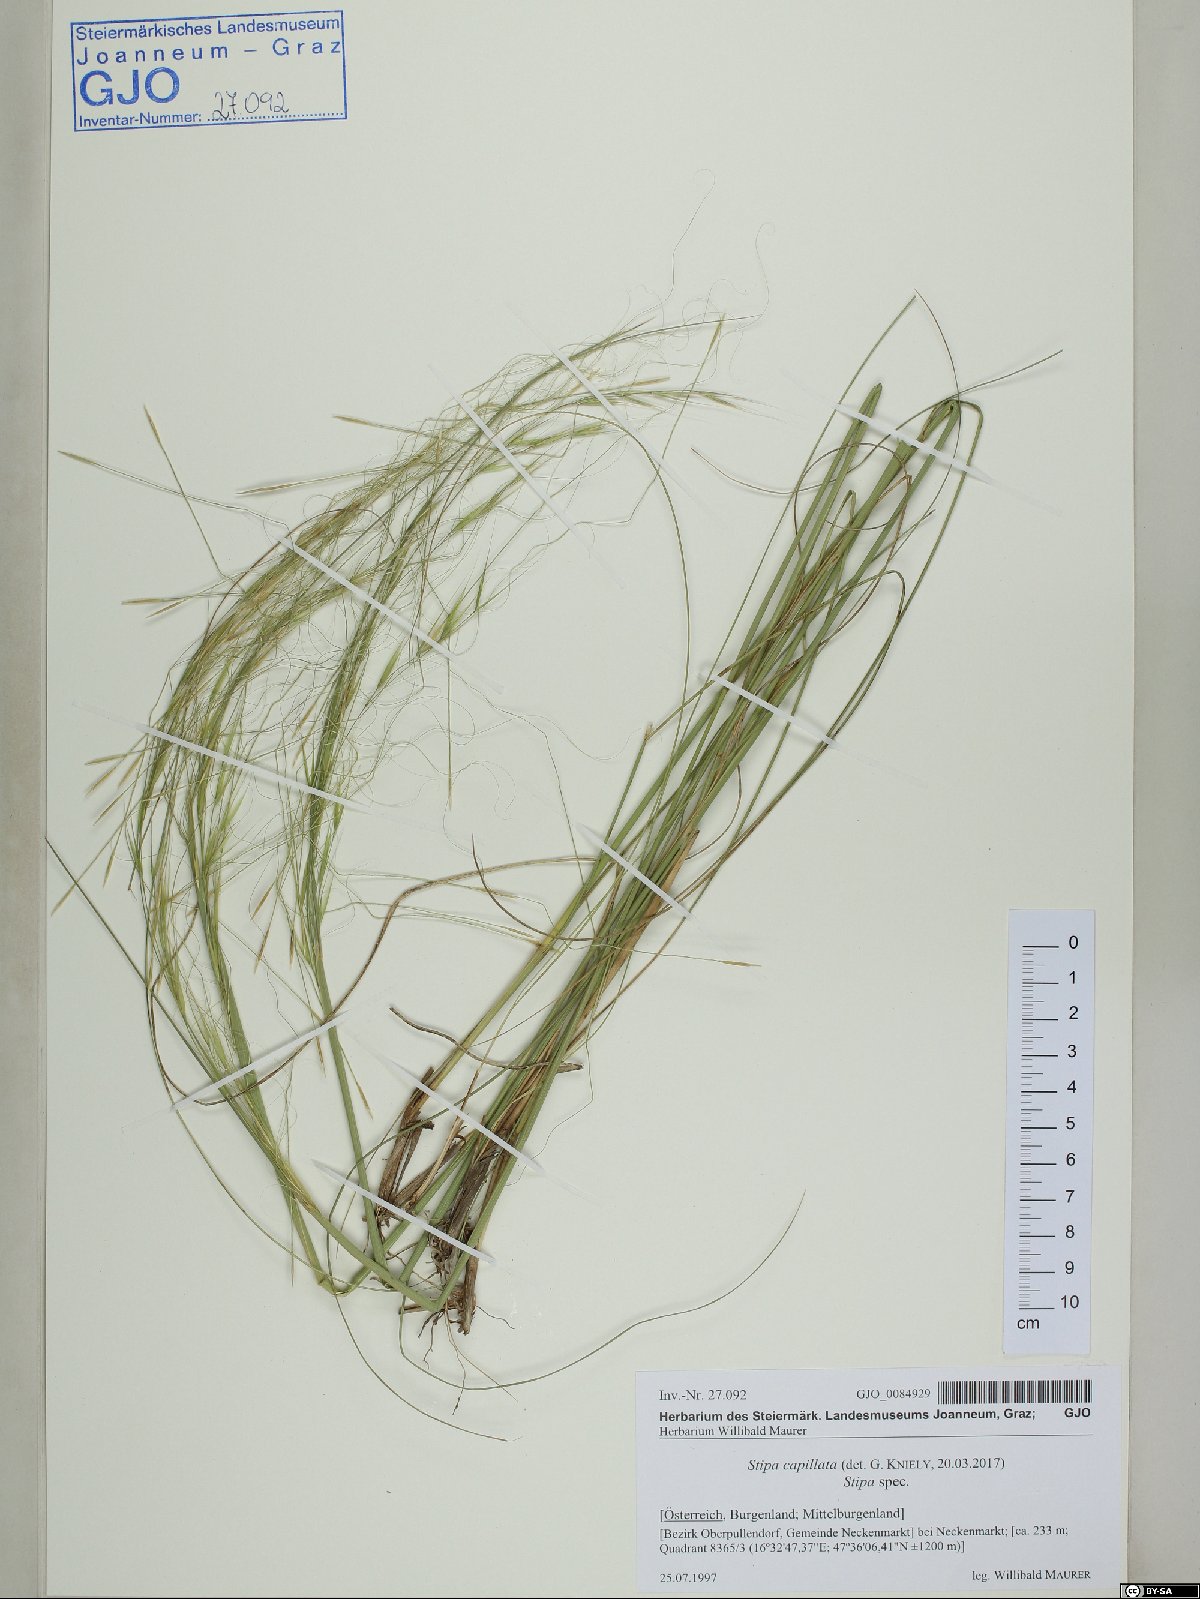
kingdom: Plantae
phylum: Tracheophyta
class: Liliopsida
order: Poales
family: Poaceae
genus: Stipa
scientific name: Stipa capillata
